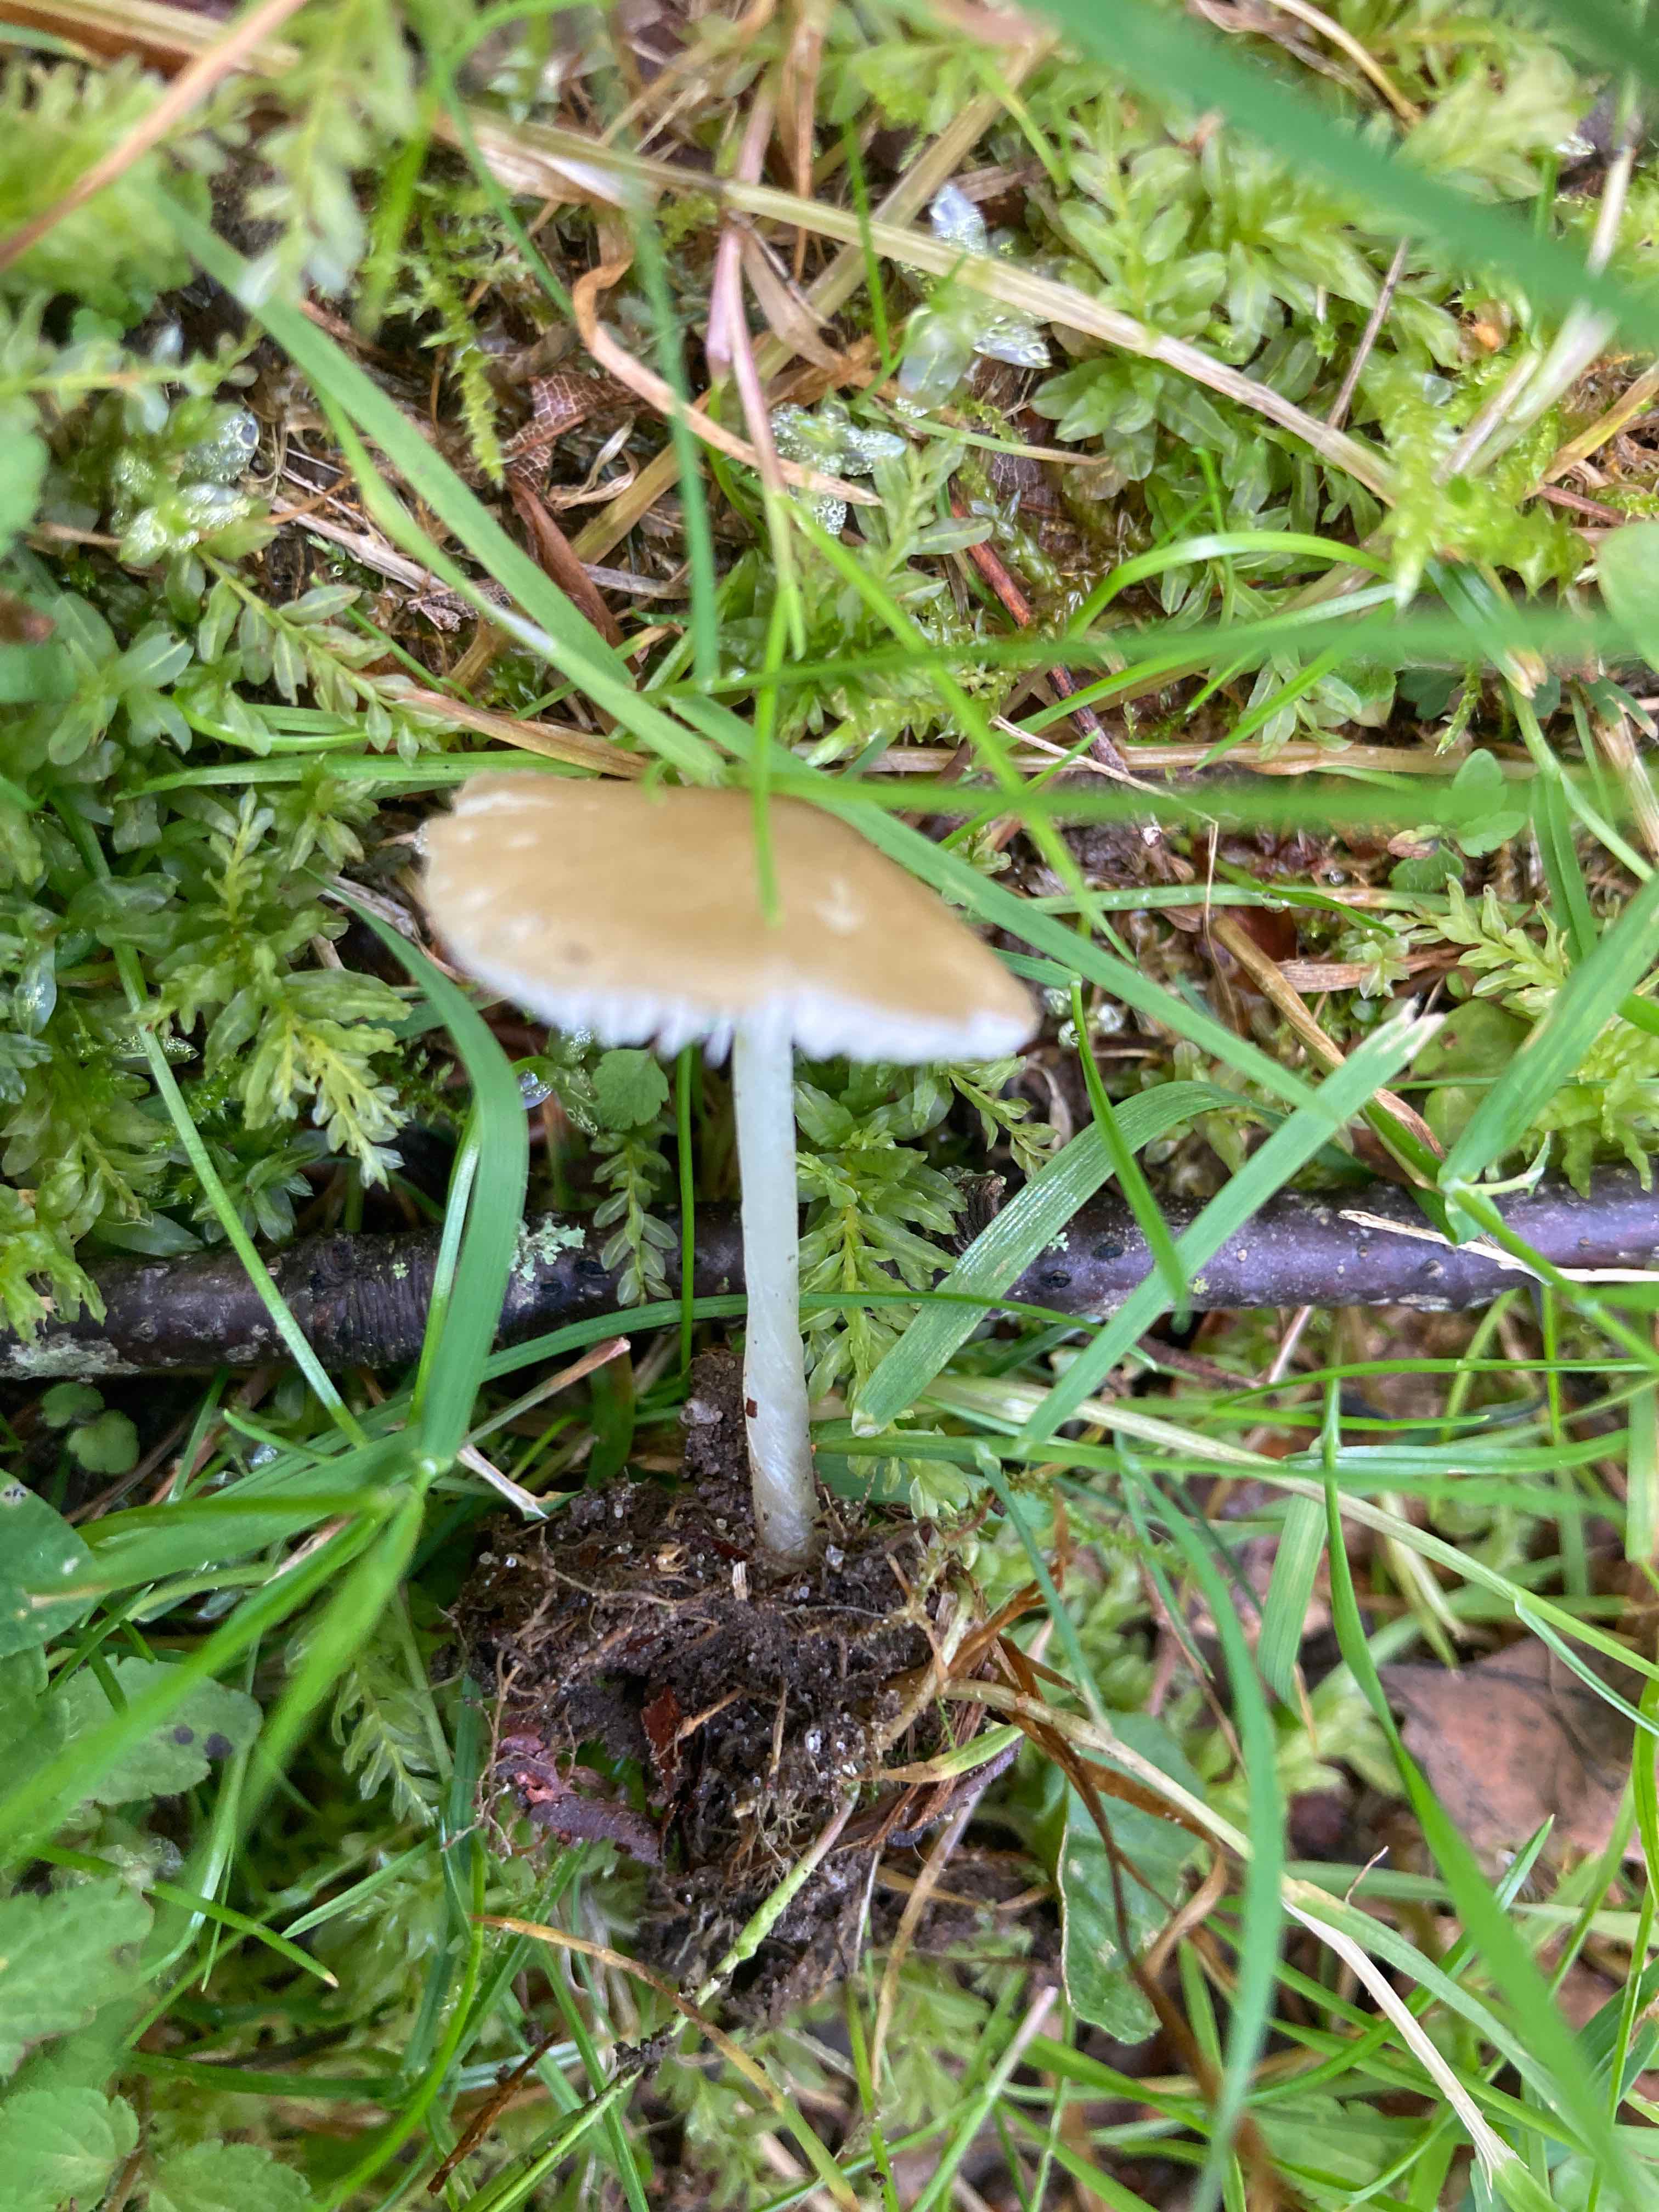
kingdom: Fungi
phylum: Basidiomycota
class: Agaricomycetes
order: Agaricales
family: Porotheleaceae
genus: Hydropodia
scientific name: Hydropodia subalpina
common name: vår-fnugfod
